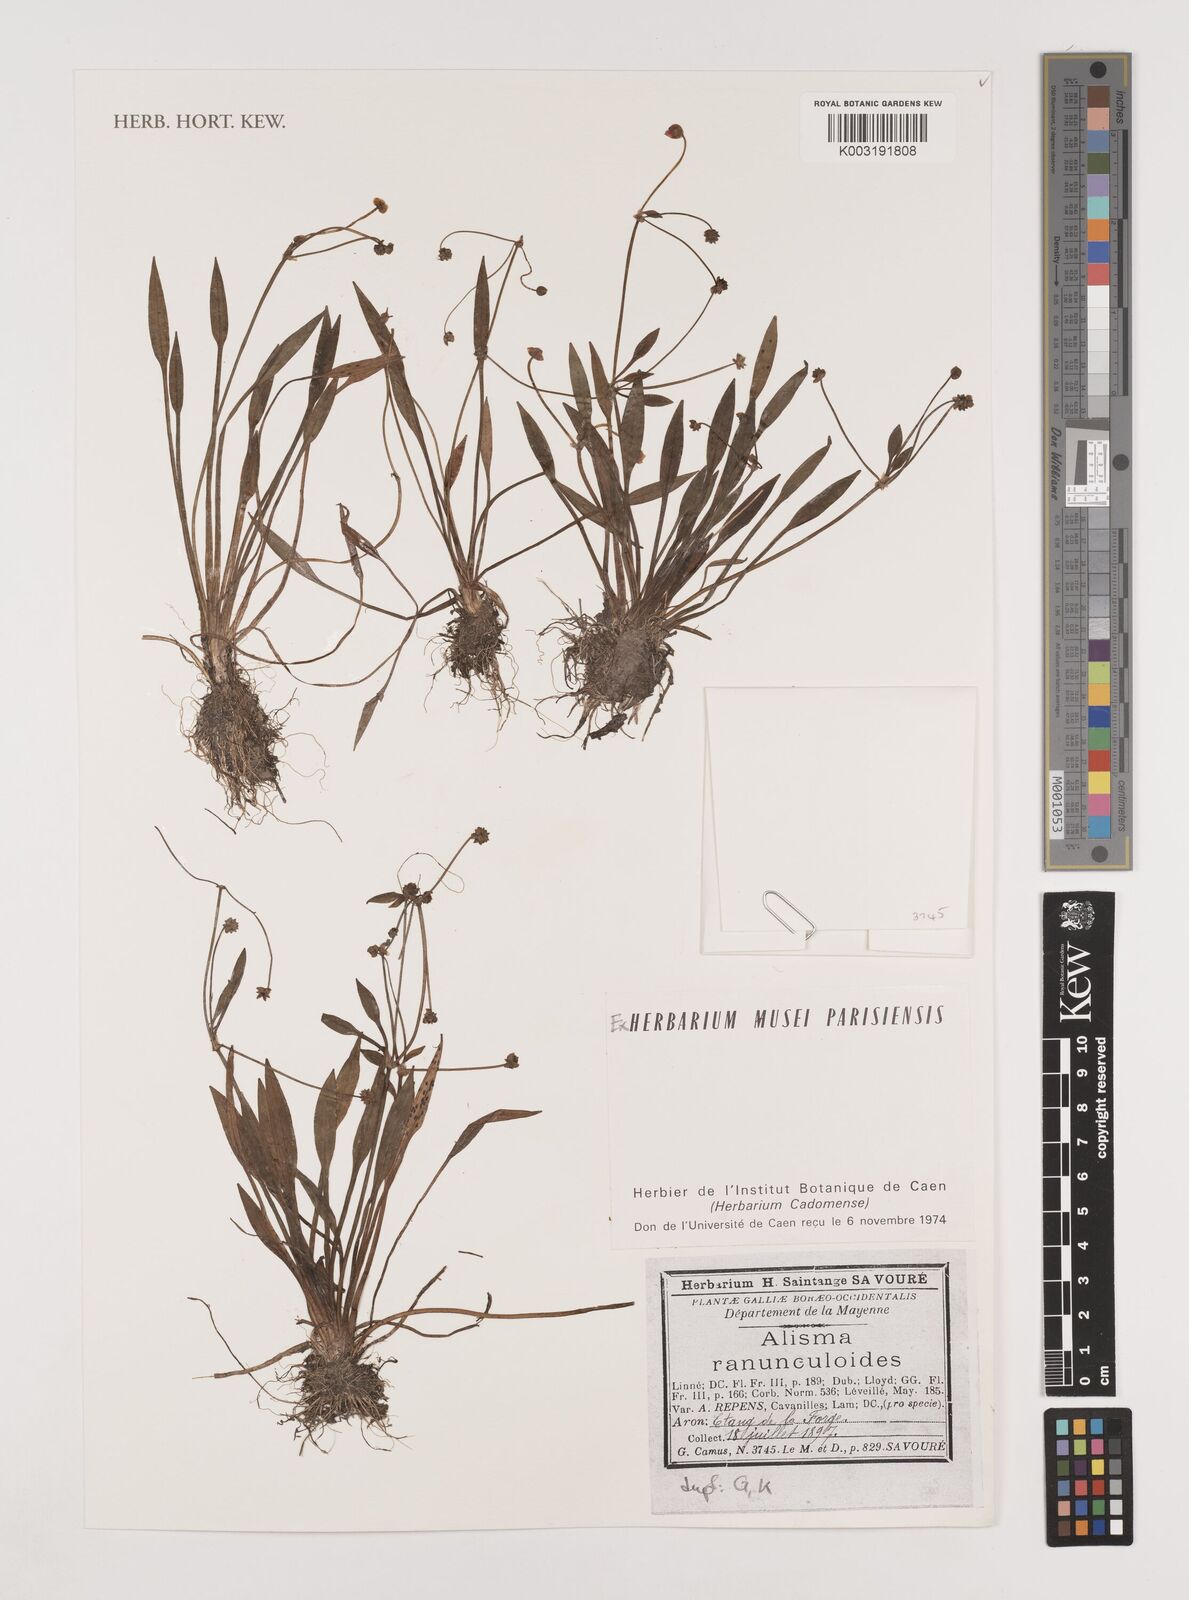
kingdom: Plantae
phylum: Tracheophyta
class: Liliopsida
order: Alismatales
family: Alismataceae
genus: Baldellia
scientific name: Baldellia ranunculoides
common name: Lesser water-plantain
